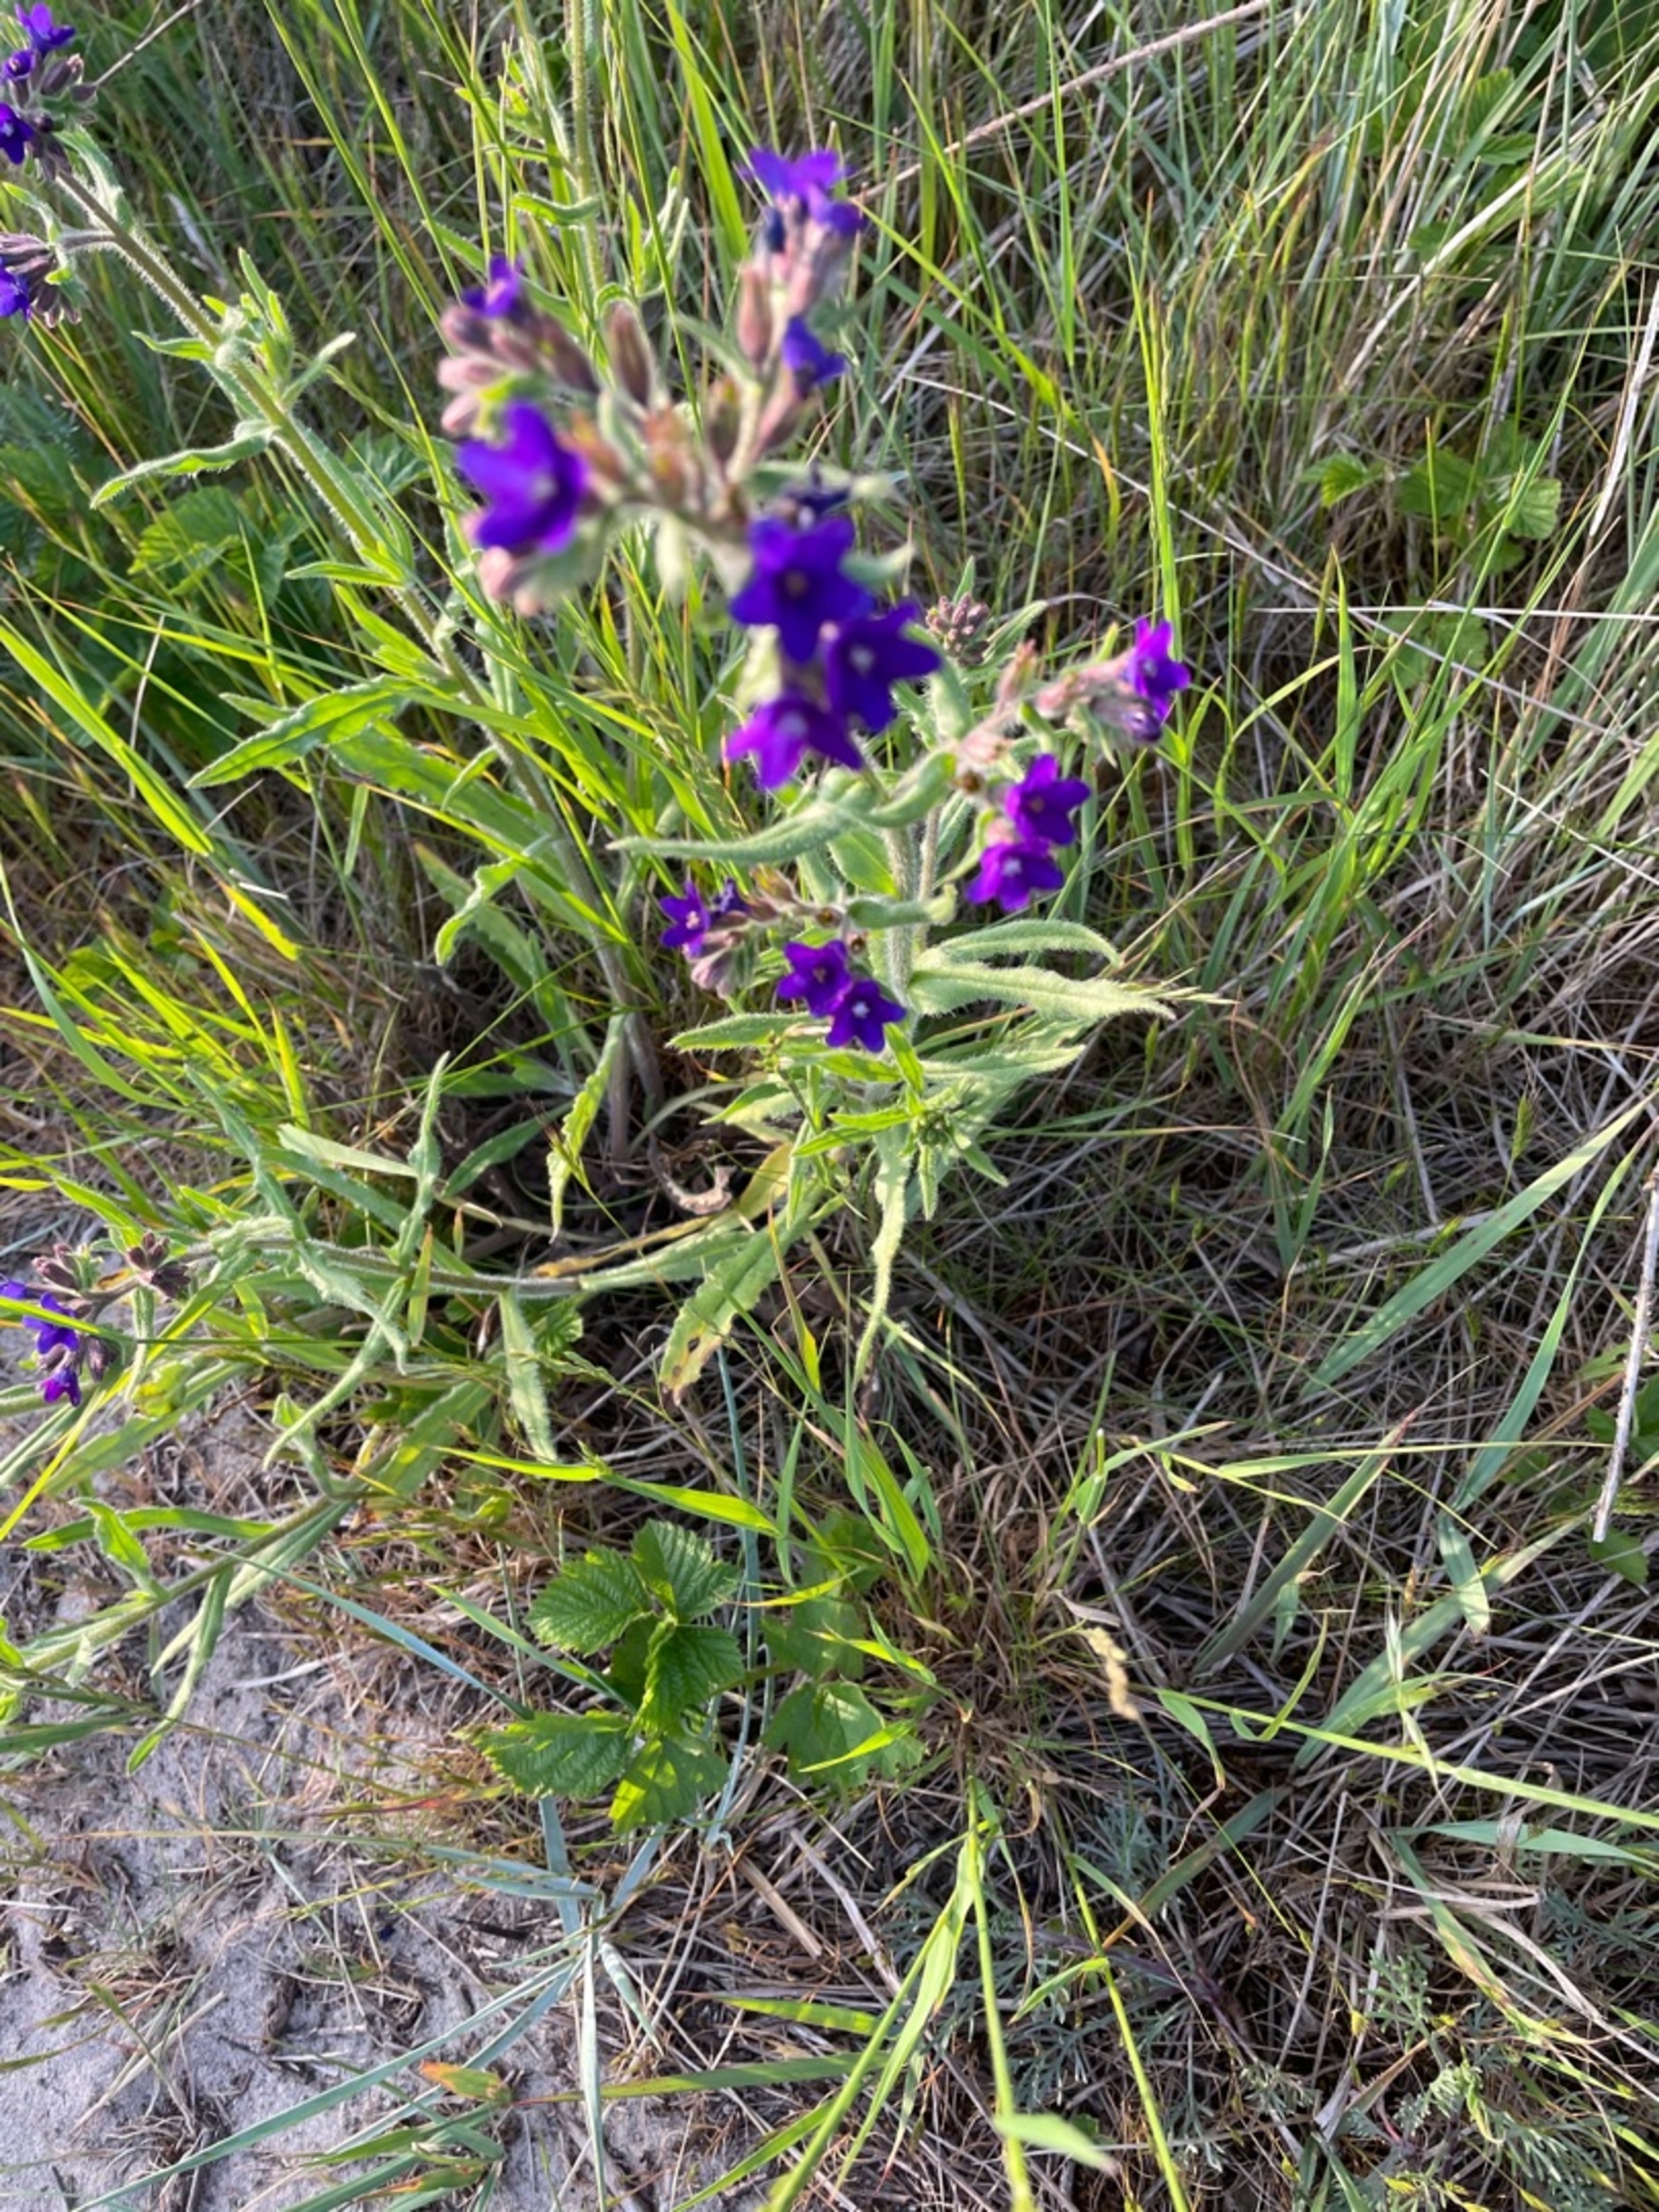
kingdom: Plantae
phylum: Tracheophyta
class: Magnoliopsida
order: Boraginales
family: Boraginaceae
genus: Anchusa
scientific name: Anchusa officinalis
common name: Læge-oksetunge
